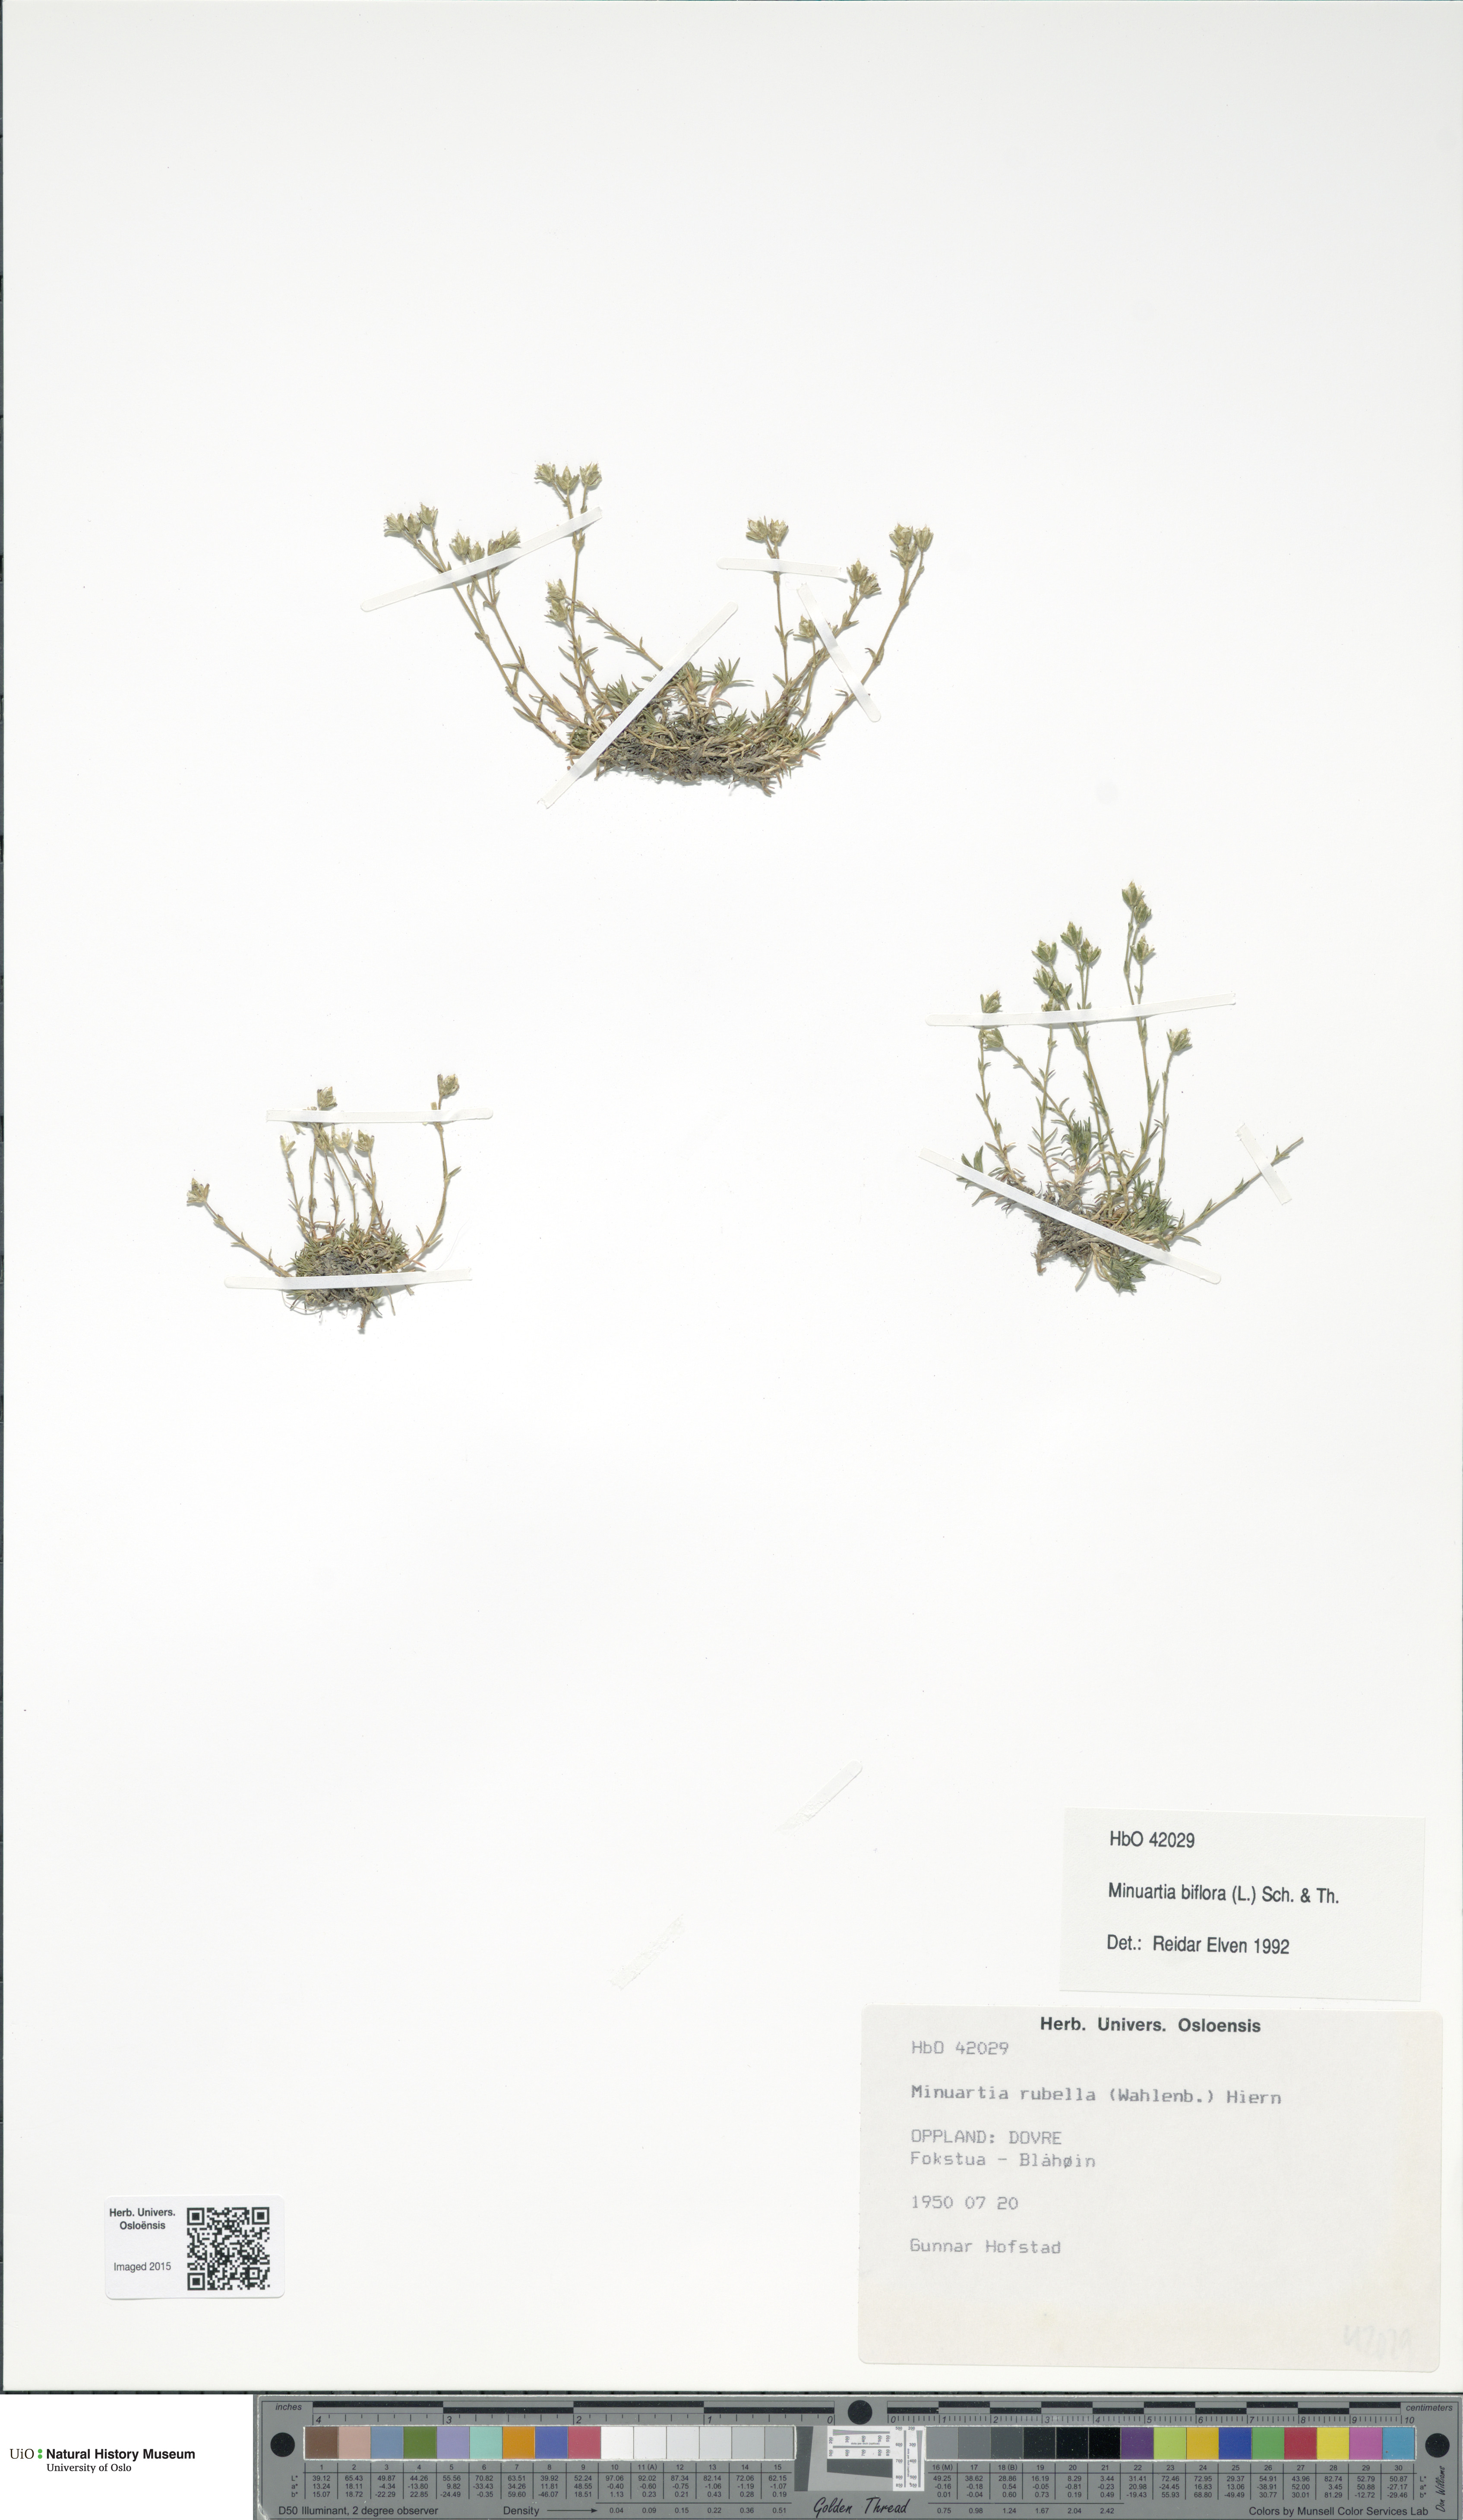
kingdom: Plantae
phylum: Tracheophyta
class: Magnoliopsida
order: Caryophyllales
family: Caryophyllaceae
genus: Cherleria
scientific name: Cherleria biflora
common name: Mountain sandwort
